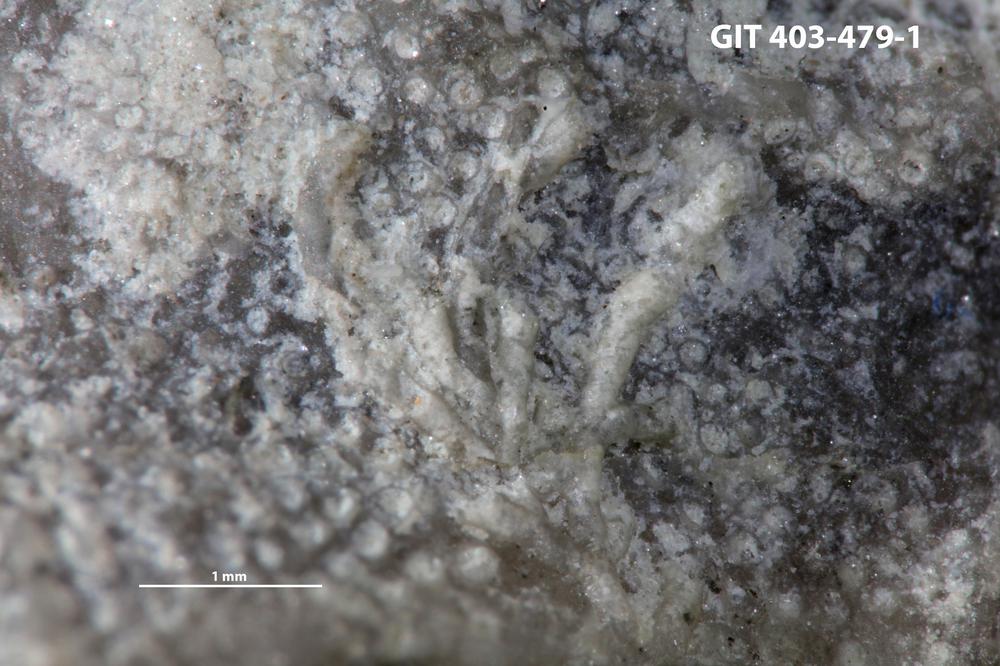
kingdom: Animalia
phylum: Bryozoa
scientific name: Bryozoa
